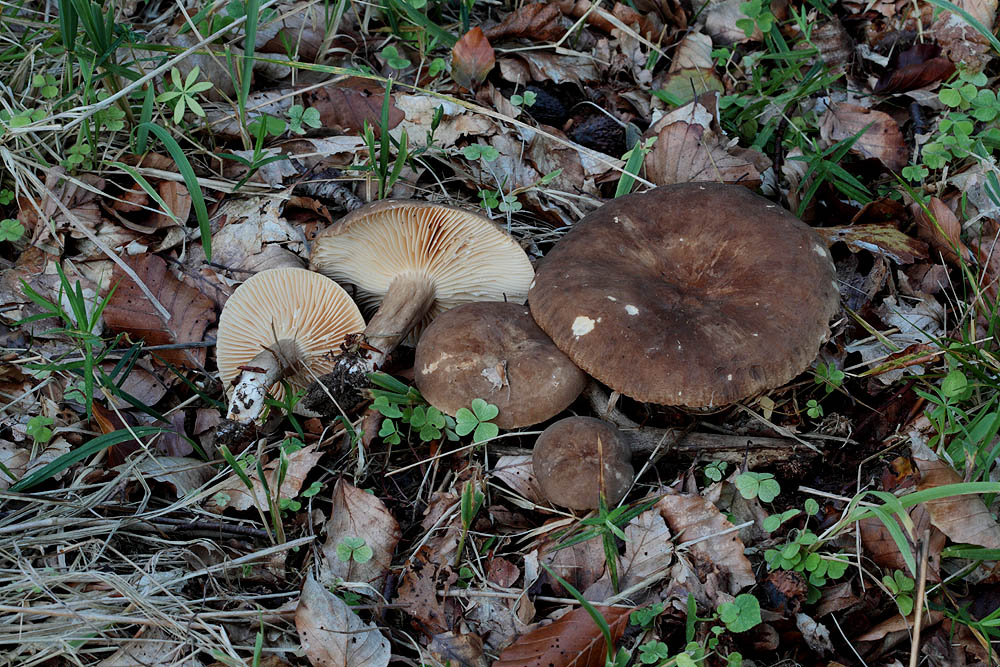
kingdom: Fungi
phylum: Basidiomycota
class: Agaricomycetes
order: Russulales
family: Russulaceae
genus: Lactarius
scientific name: Lactarius romagnesii
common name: fjernbladet mælkehat
